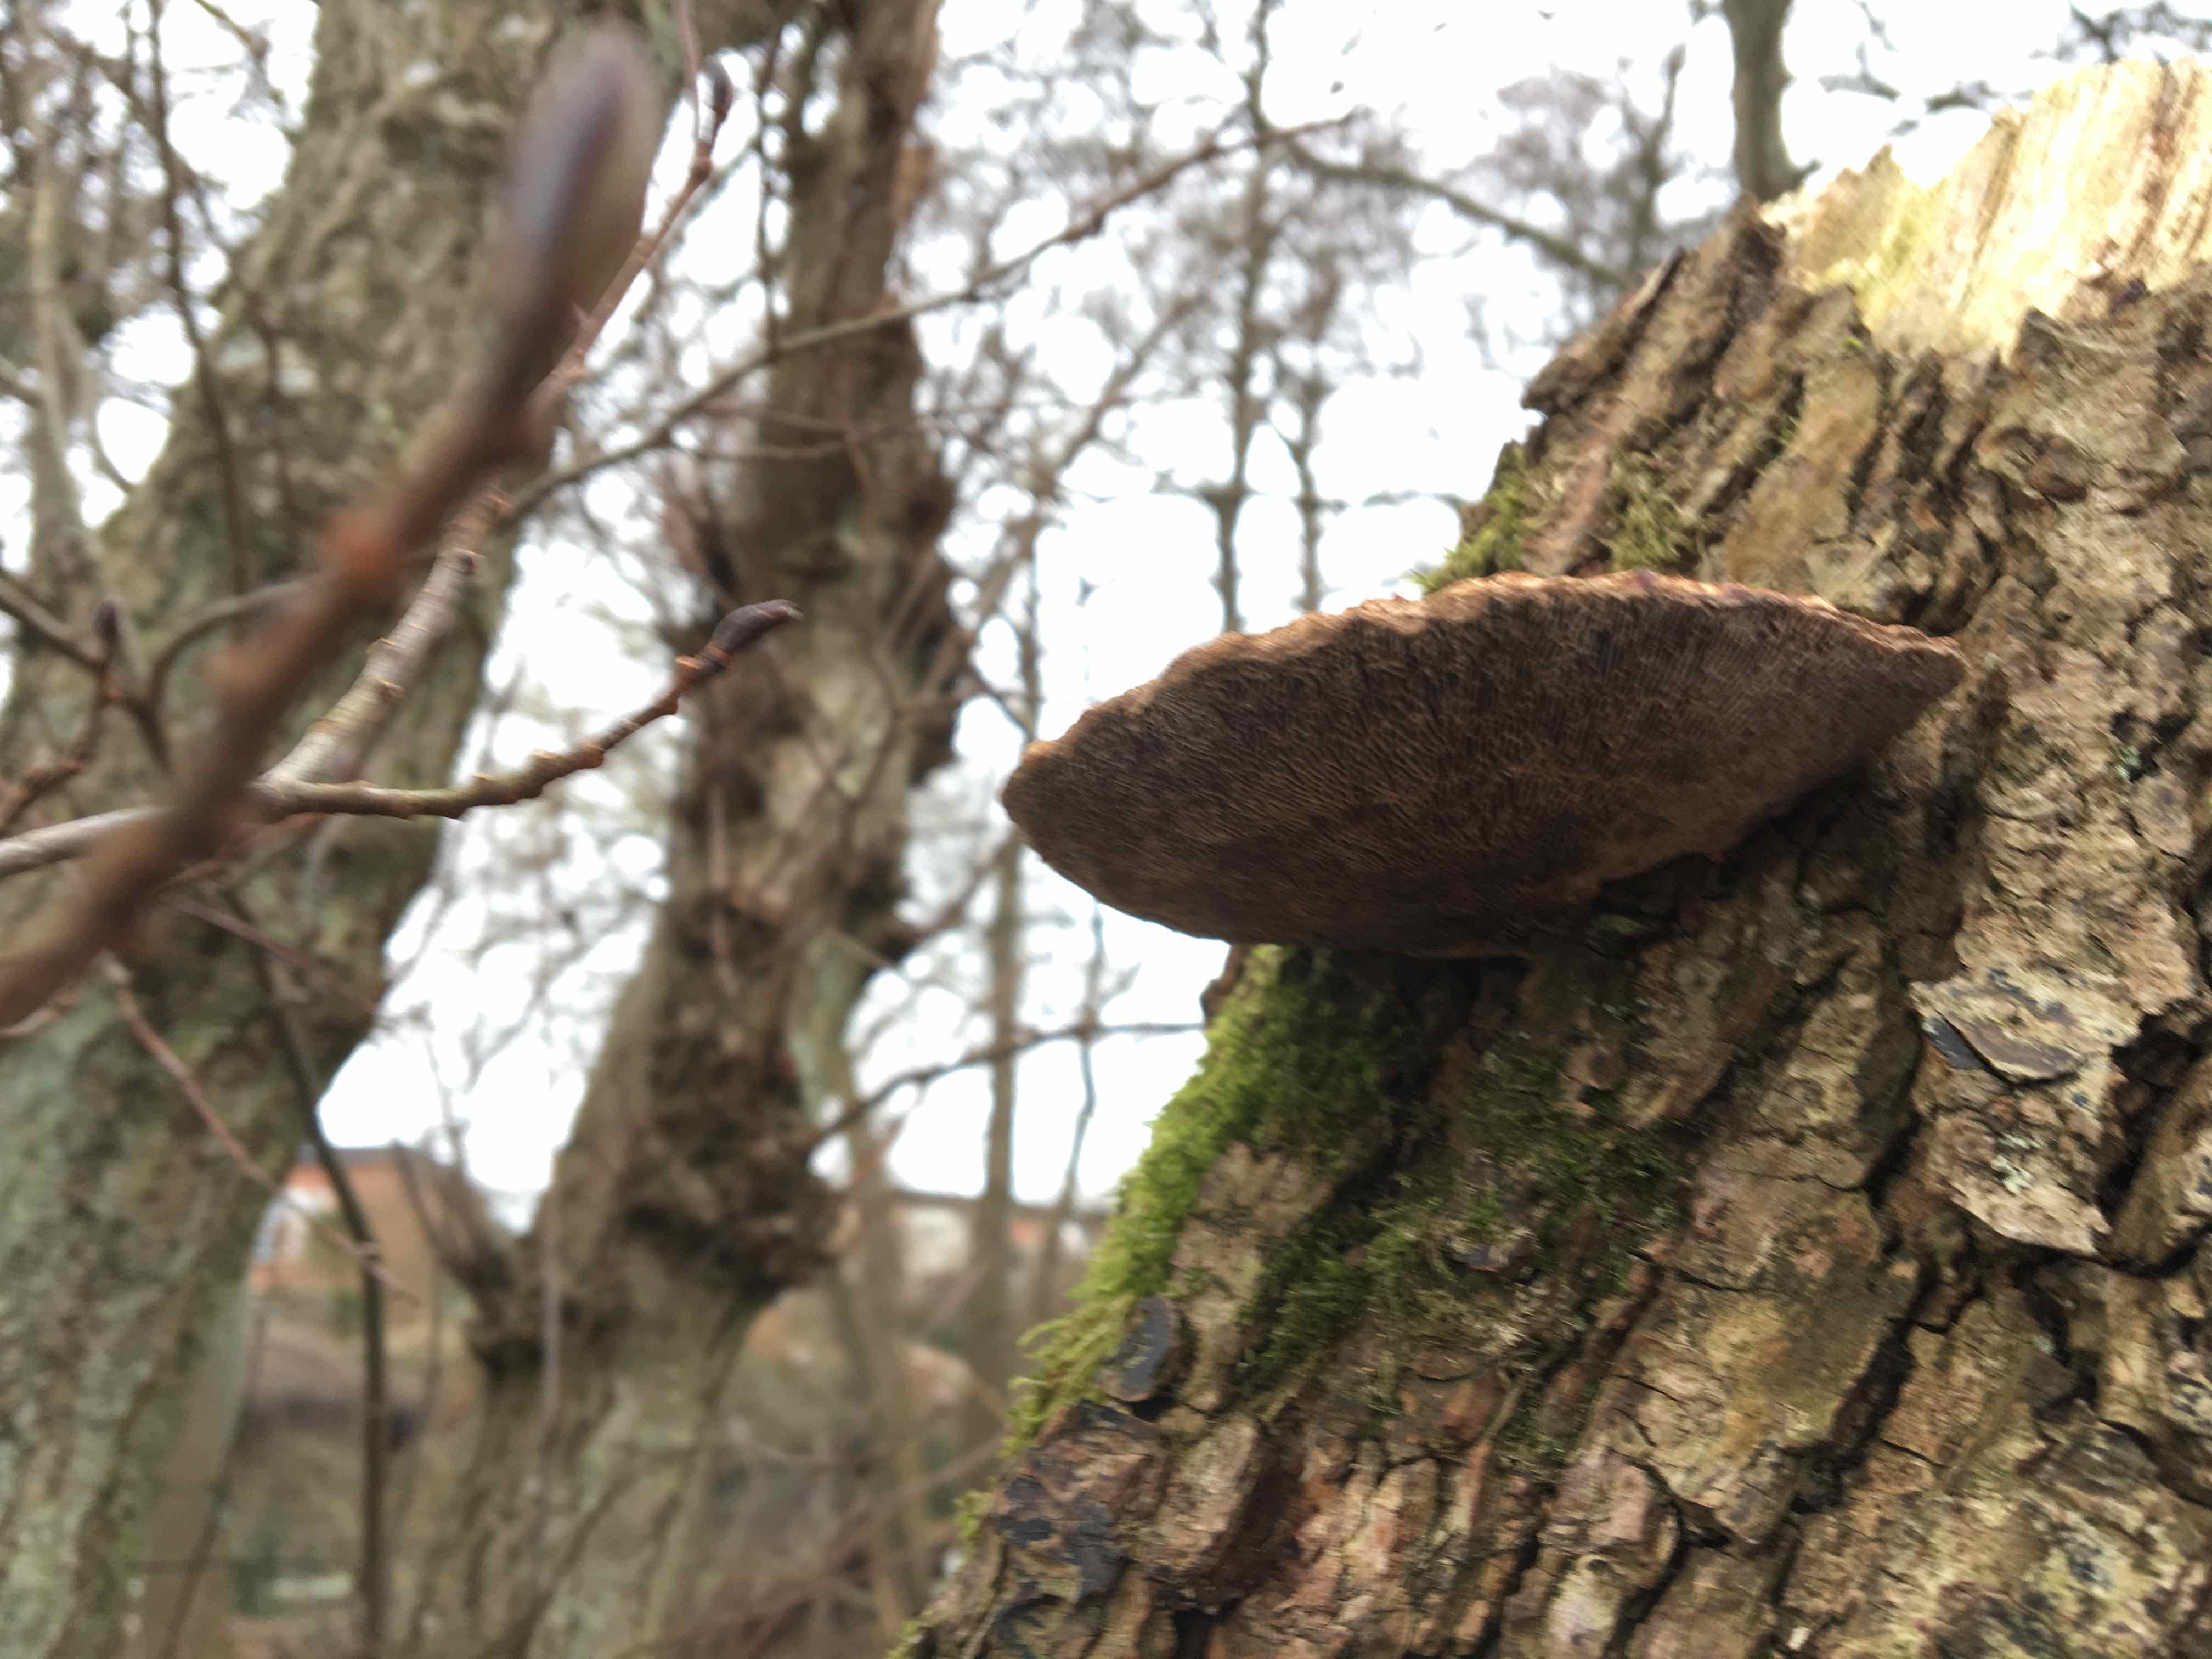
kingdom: Fungi
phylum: Basidiomycota
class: Agaricomycetes
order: Polyporales
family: Polyporaceae
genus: Daedaleopsis
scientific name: Daedaleopsis confragosa
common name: rødmende læderporesvamp
